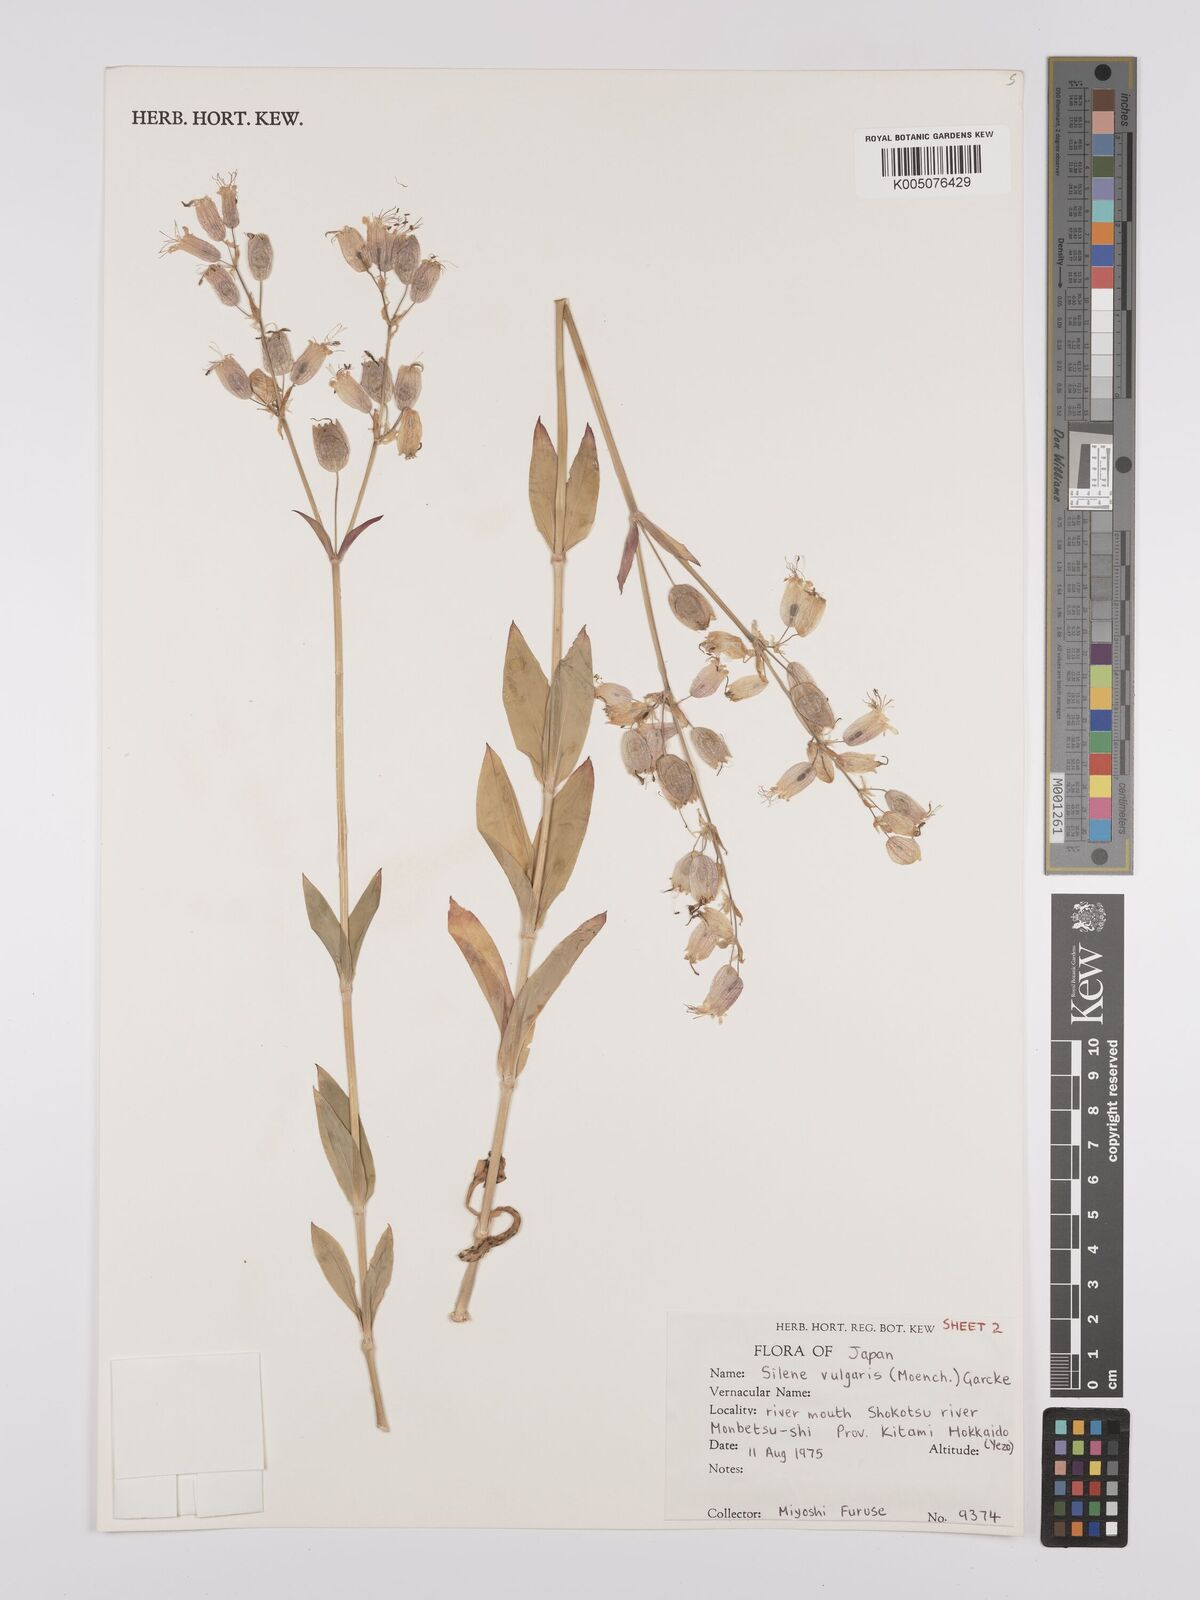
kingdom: Plantae
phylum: Tracheophyta
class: Magnoliopsida
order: Caryophyllales
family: Caryophyllaceae
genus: Silene
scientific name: Silene vulgaris
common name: Bladder campion
